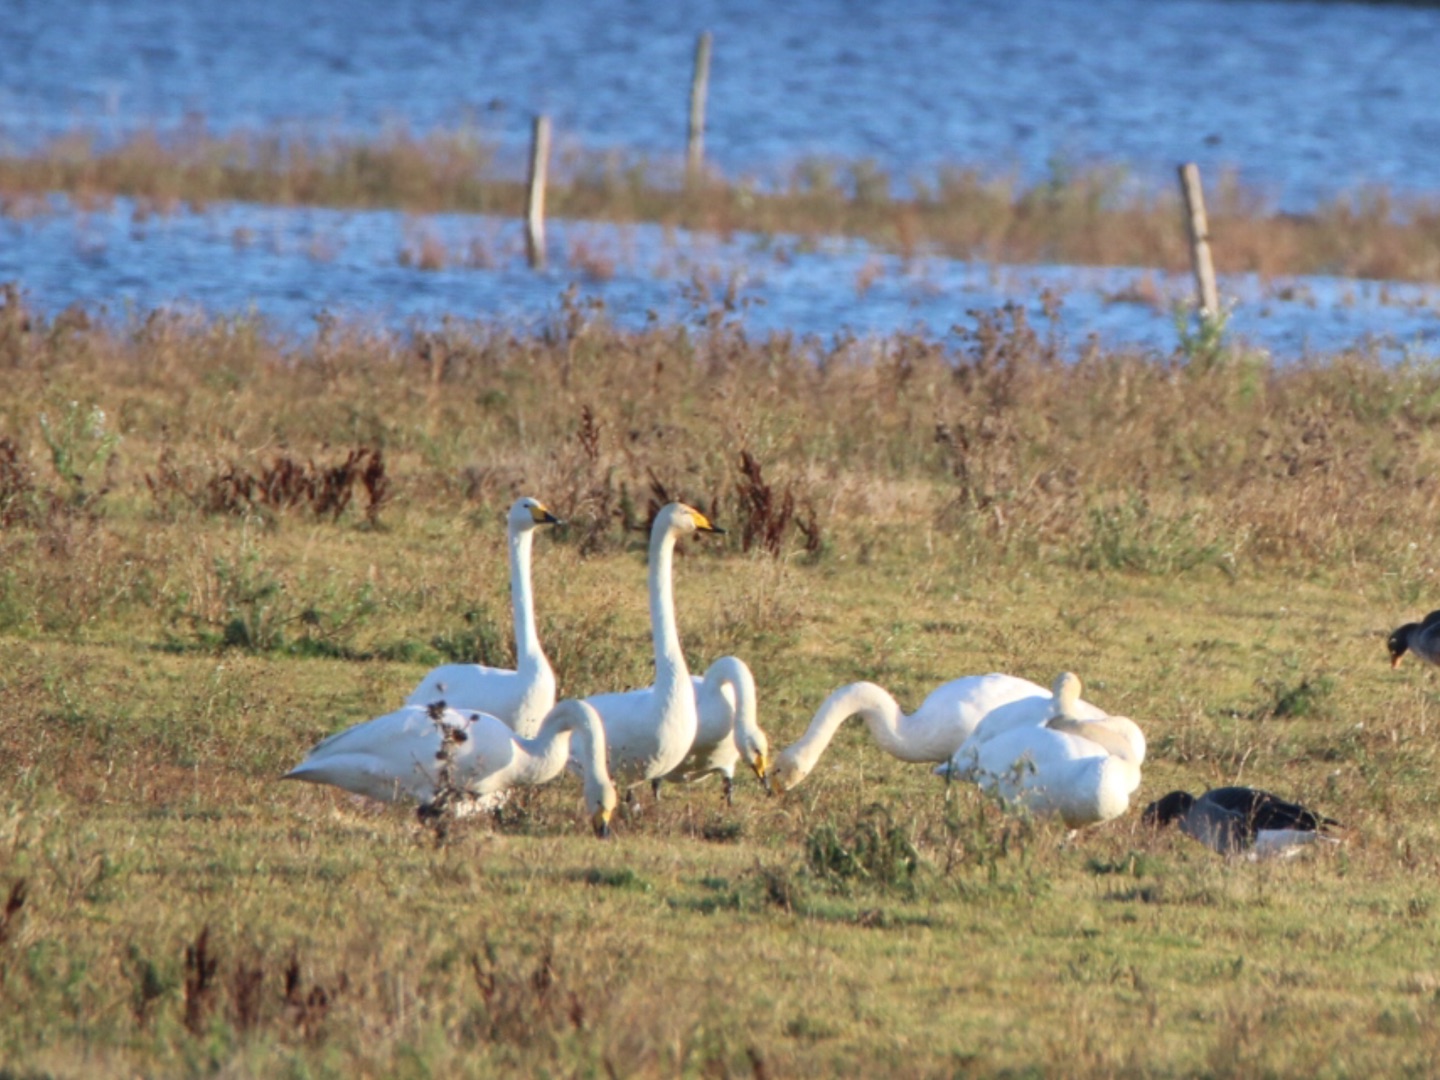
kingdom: Animalia
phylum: Chordata
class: Aves
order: Anseriformes
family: Anatidae
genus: Cygnus
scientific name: Cygnus cygnus
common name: Sangsvane
